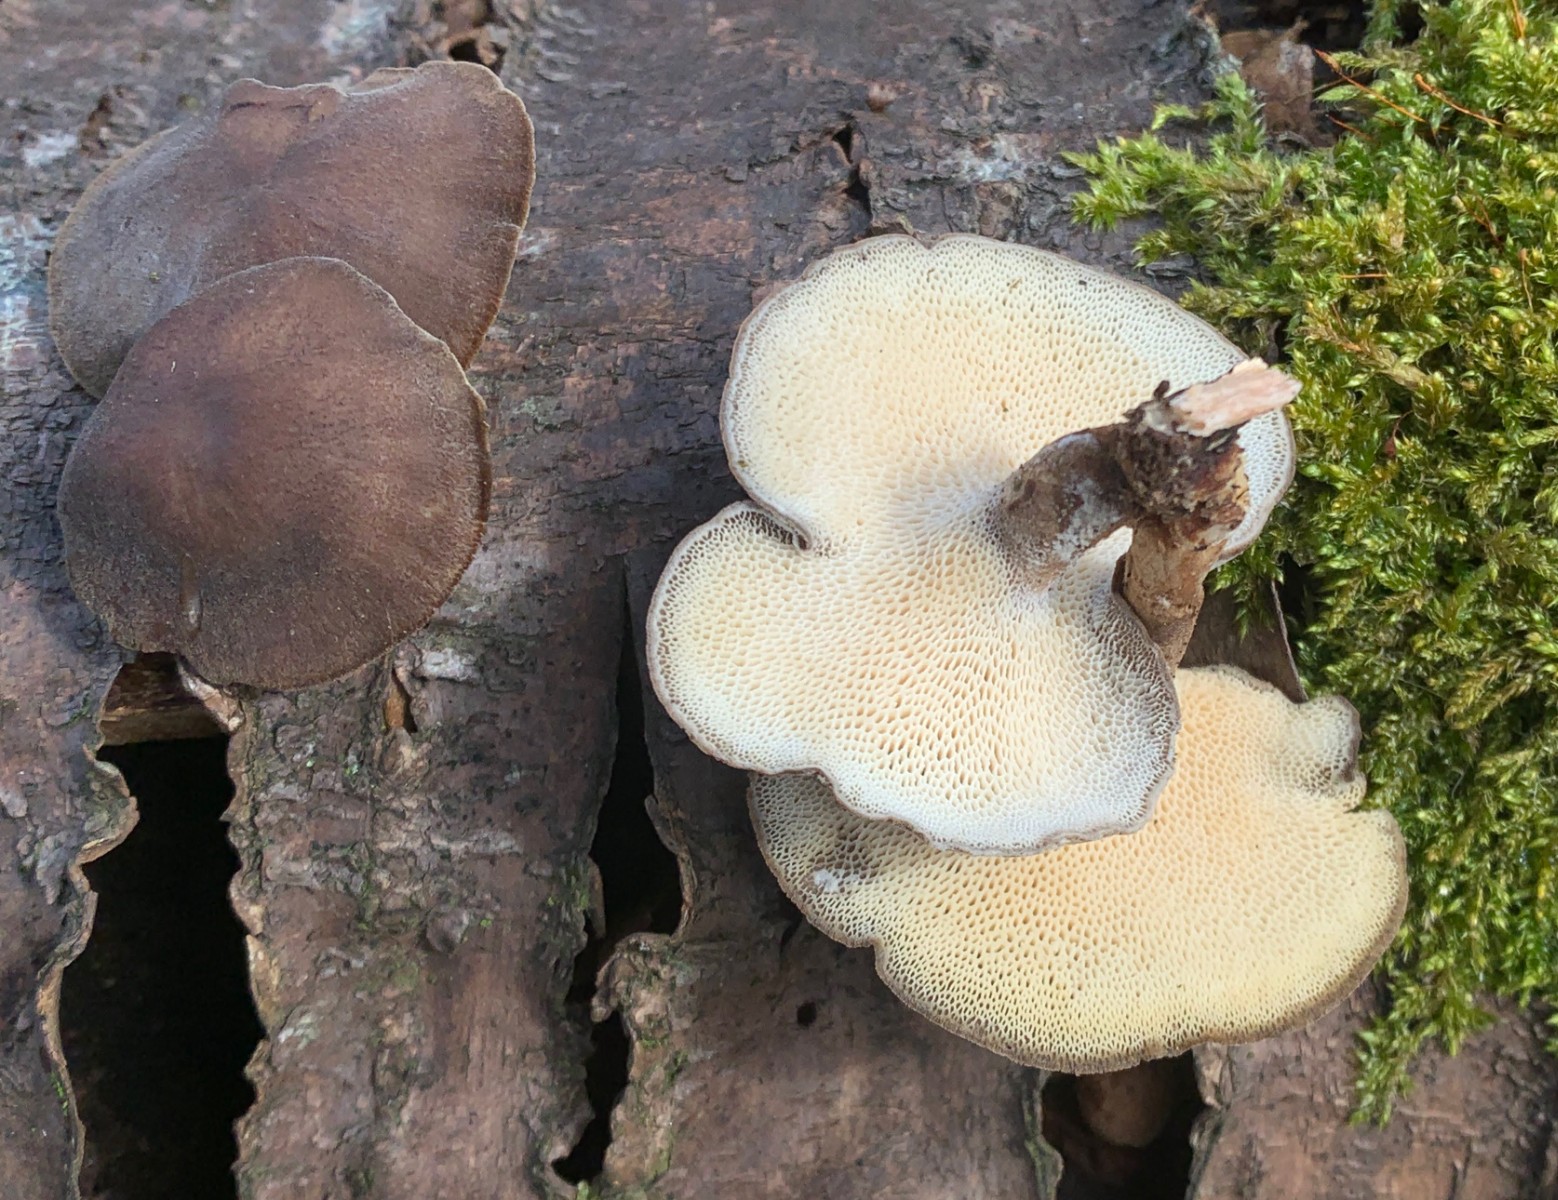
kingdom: Fungi
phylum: Basidiomycota
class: Agaricomycetes
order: Polyporales
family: Polyporaceae
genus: Lentinus
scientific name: Lentinus brumalis
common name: vinter-stilkporesvamp
